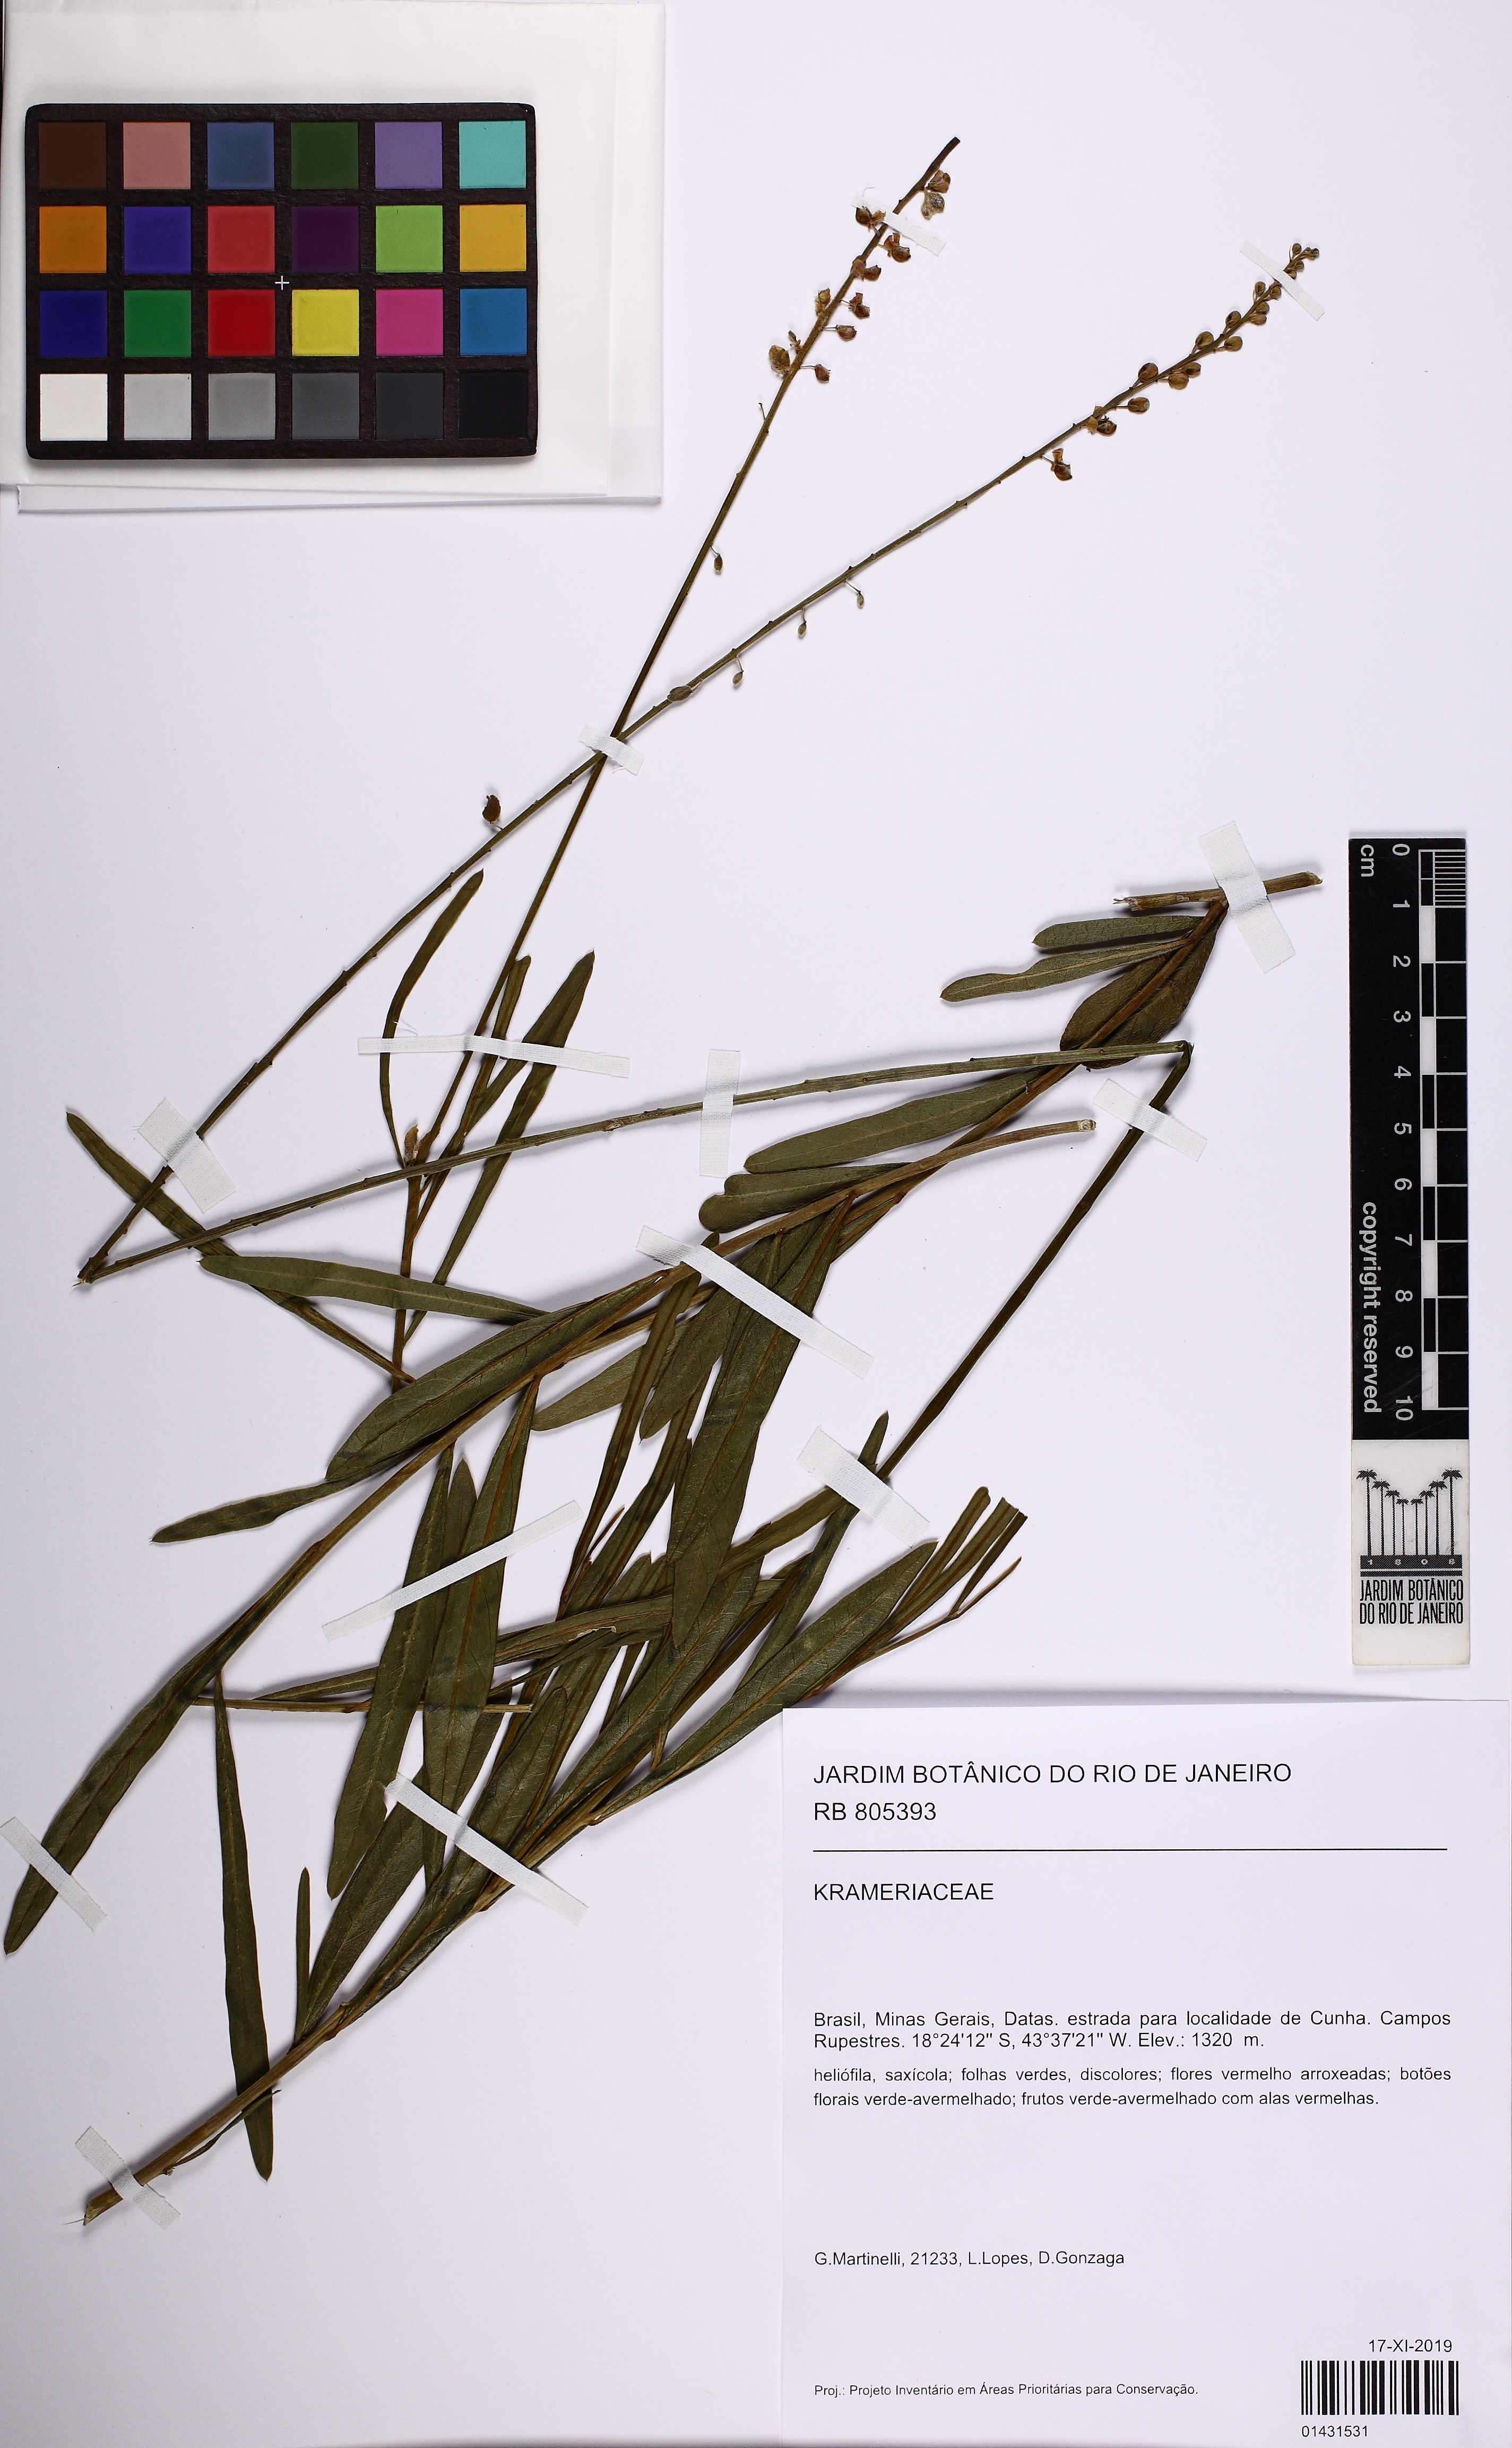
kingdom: Plantae
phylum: Tracheophyta
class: Magnoliopsida
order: Zygophyllales
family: Krameriaceae
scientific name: Krameriaceae
